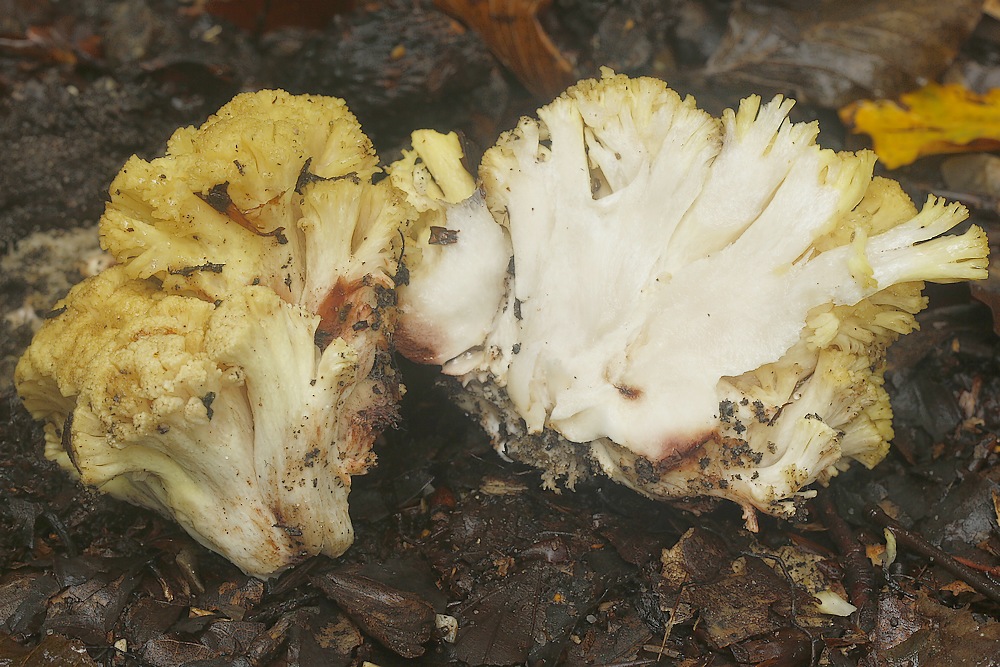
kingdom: Fungi
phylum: Basidiomycota
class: Agaricomycetes
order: Gomphales
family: Gomphaceae
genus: Ramaria
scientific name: Ramaria sanguinea
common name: blodplettet koralsvamp
